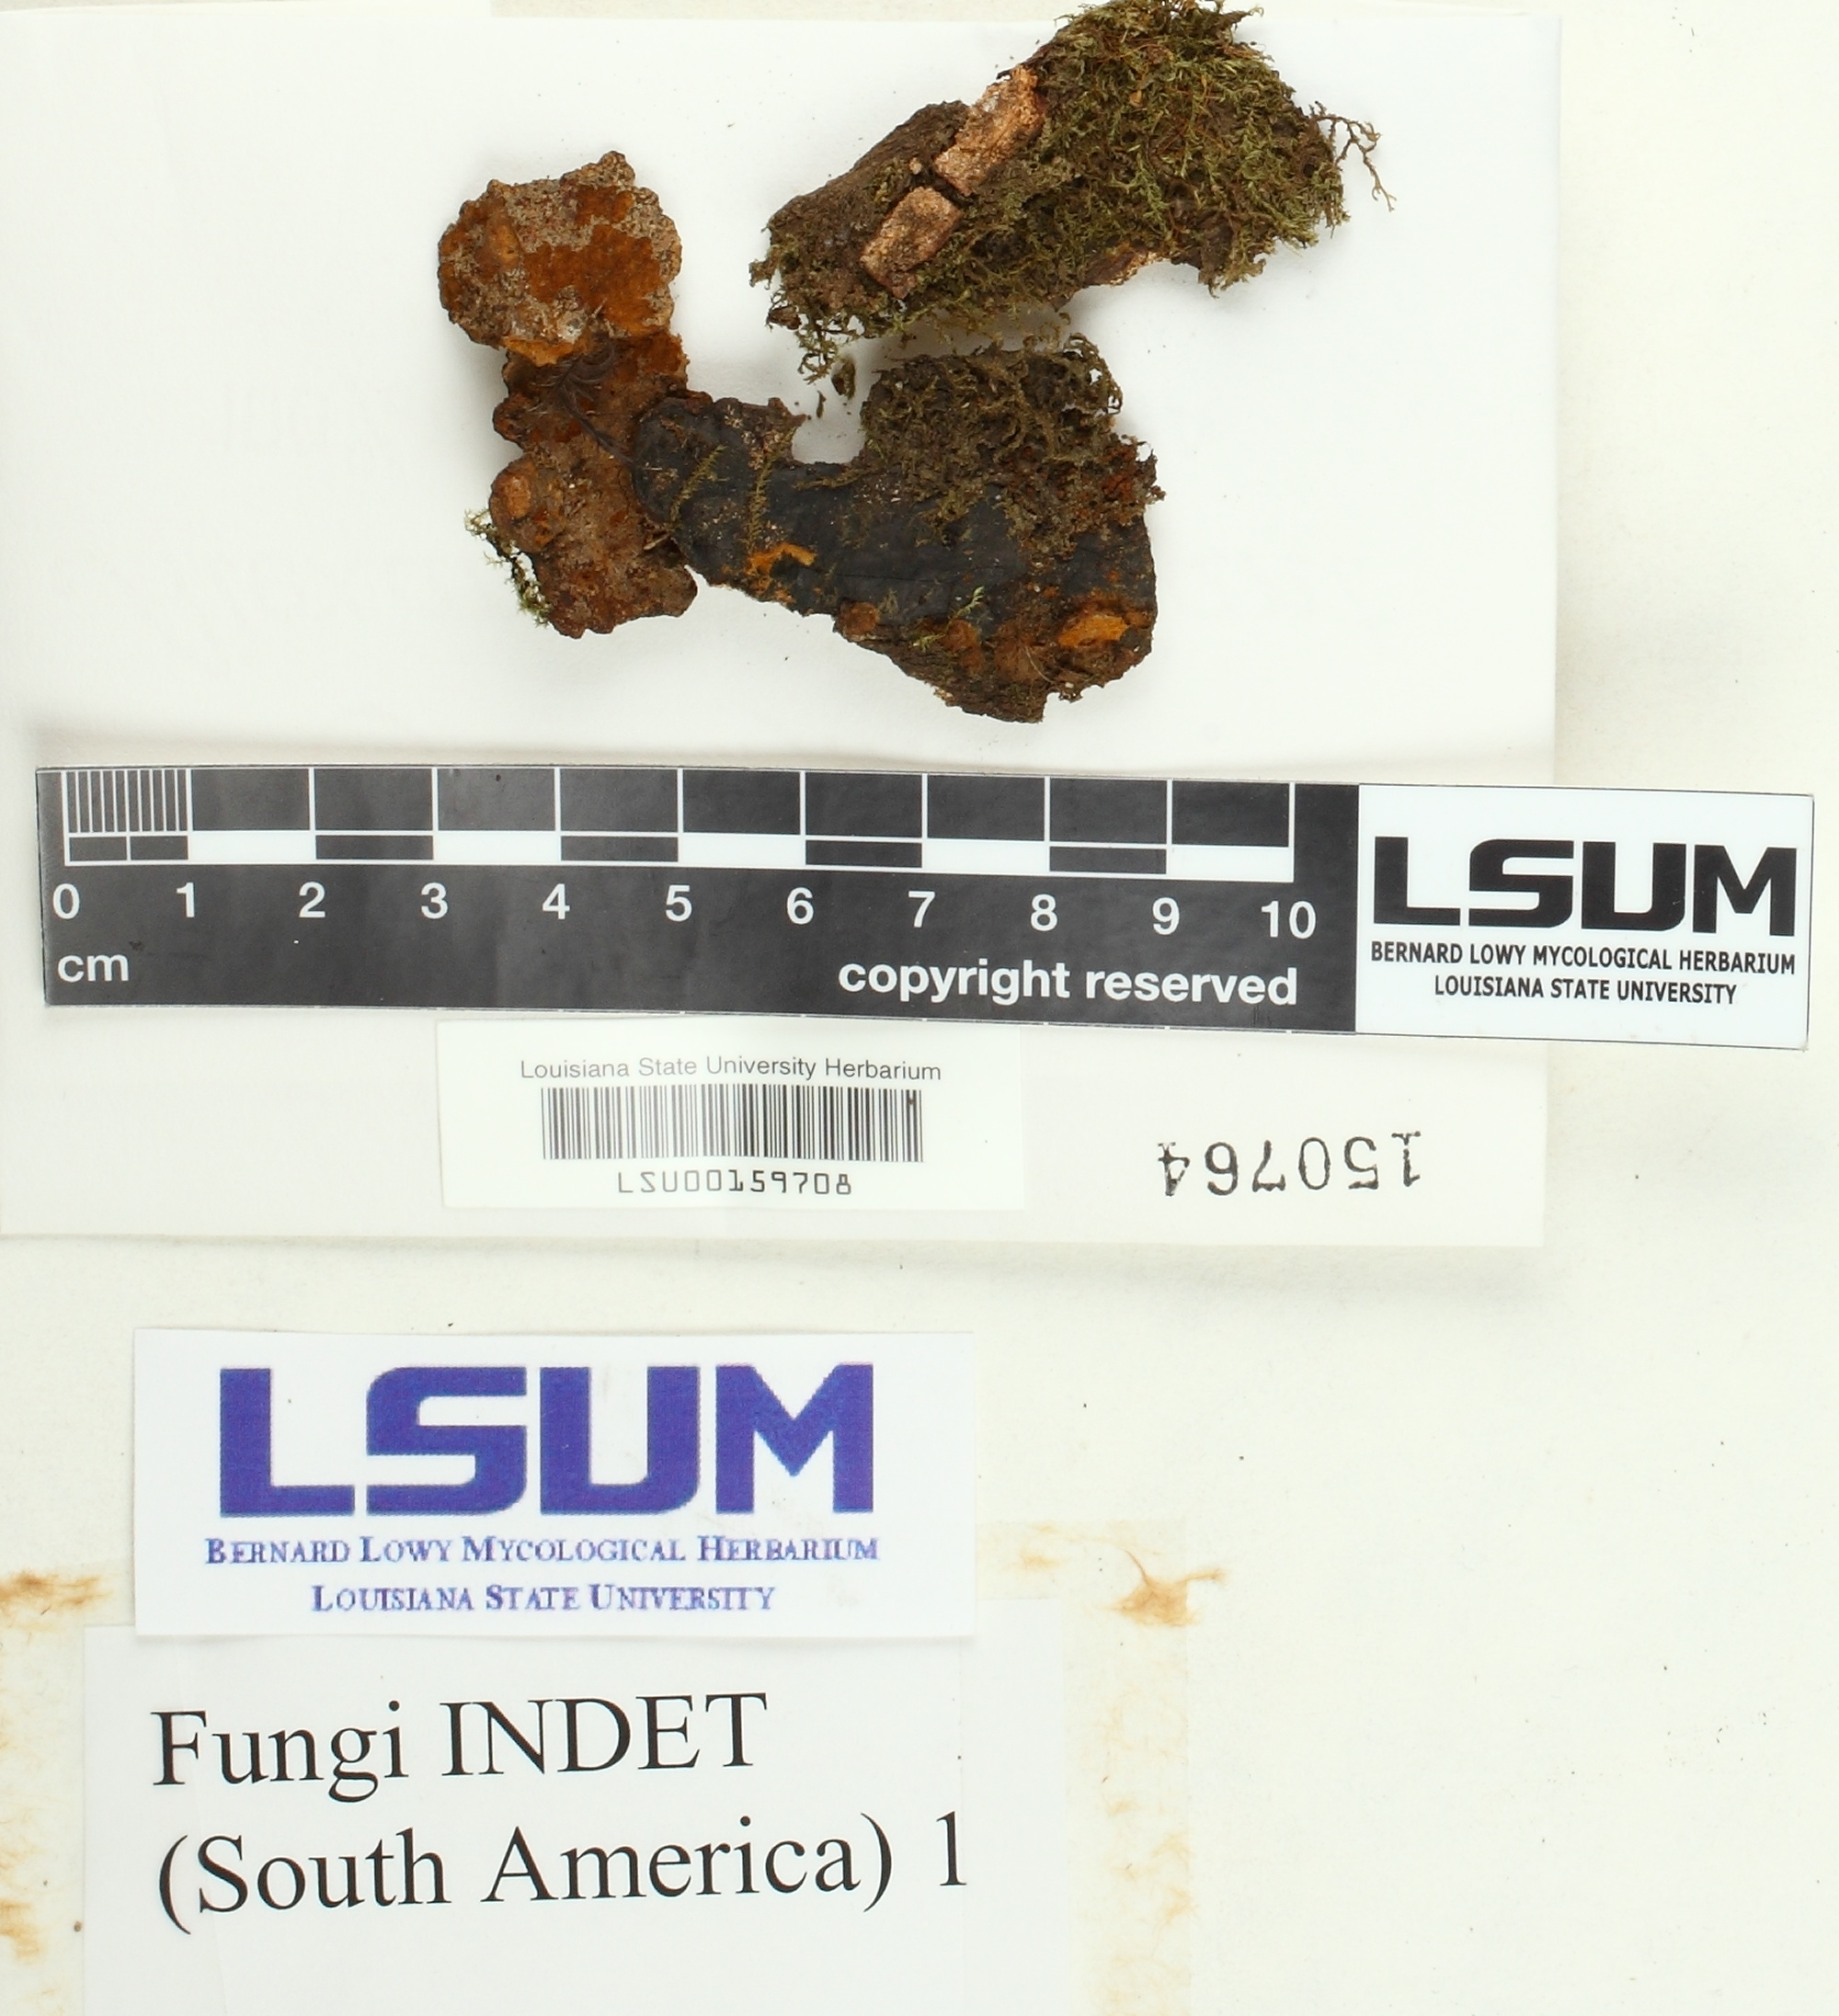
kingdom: Fungi
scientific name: Fungi
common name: Fungi
